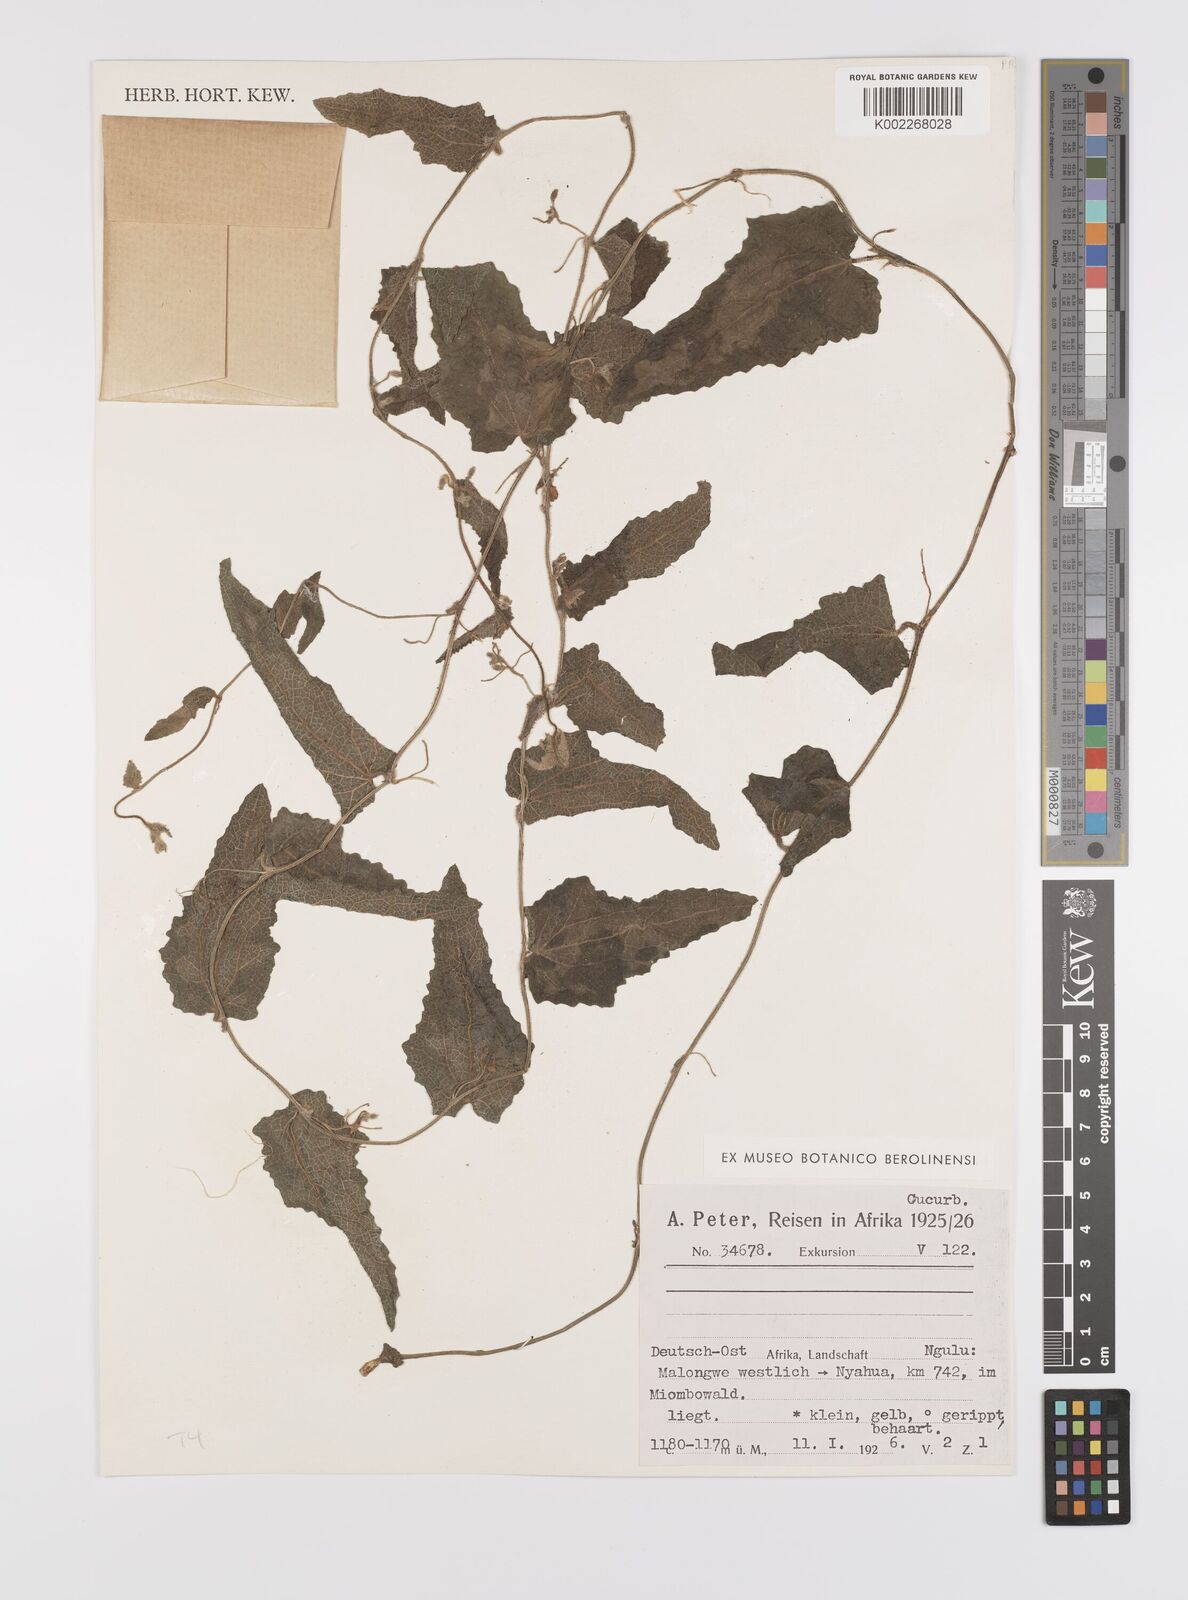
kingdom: Plantae
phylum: Tracheophyta
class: Magnoliopsida
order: Cucurbitales
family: Cucurbitaceae
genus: Cucumis
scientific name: Cucumis hirsutus
